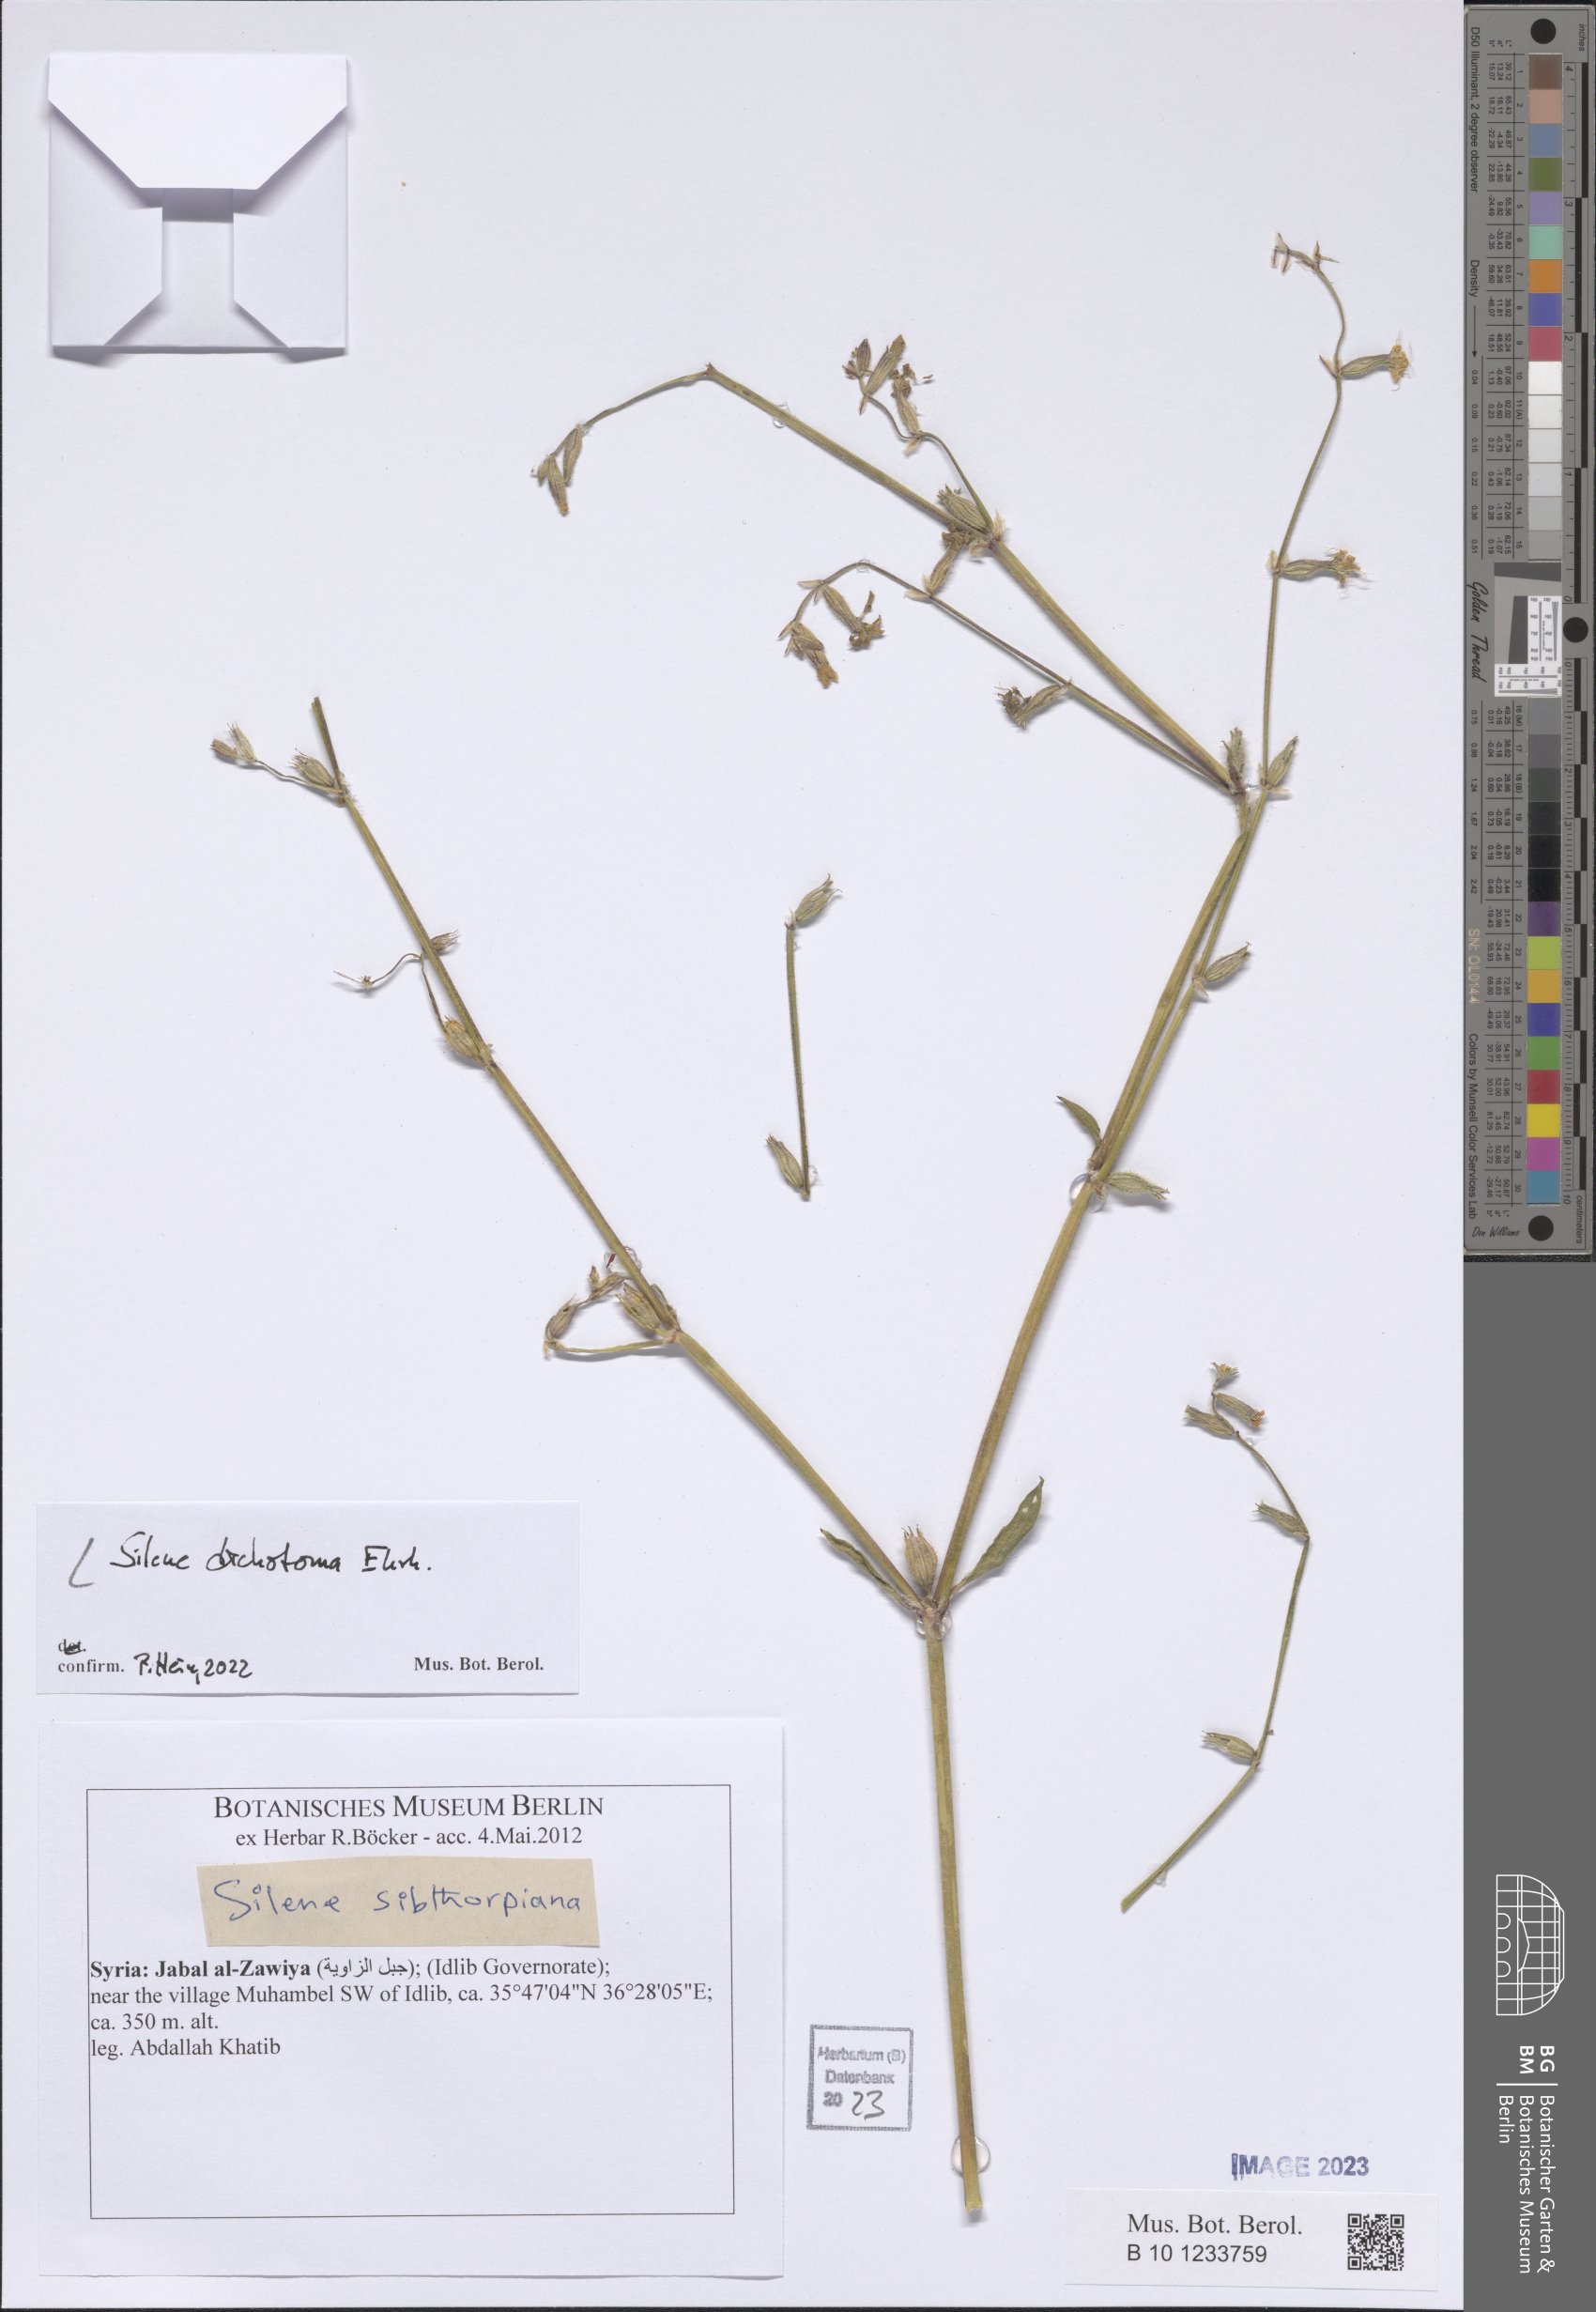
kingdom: Plantae
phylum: Tracheophyta
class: Magnoliopsida
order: Caryophyllales
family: Caryophyllaceae
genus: Silene
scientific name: Silene dichotoma
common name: Forked catchfly
